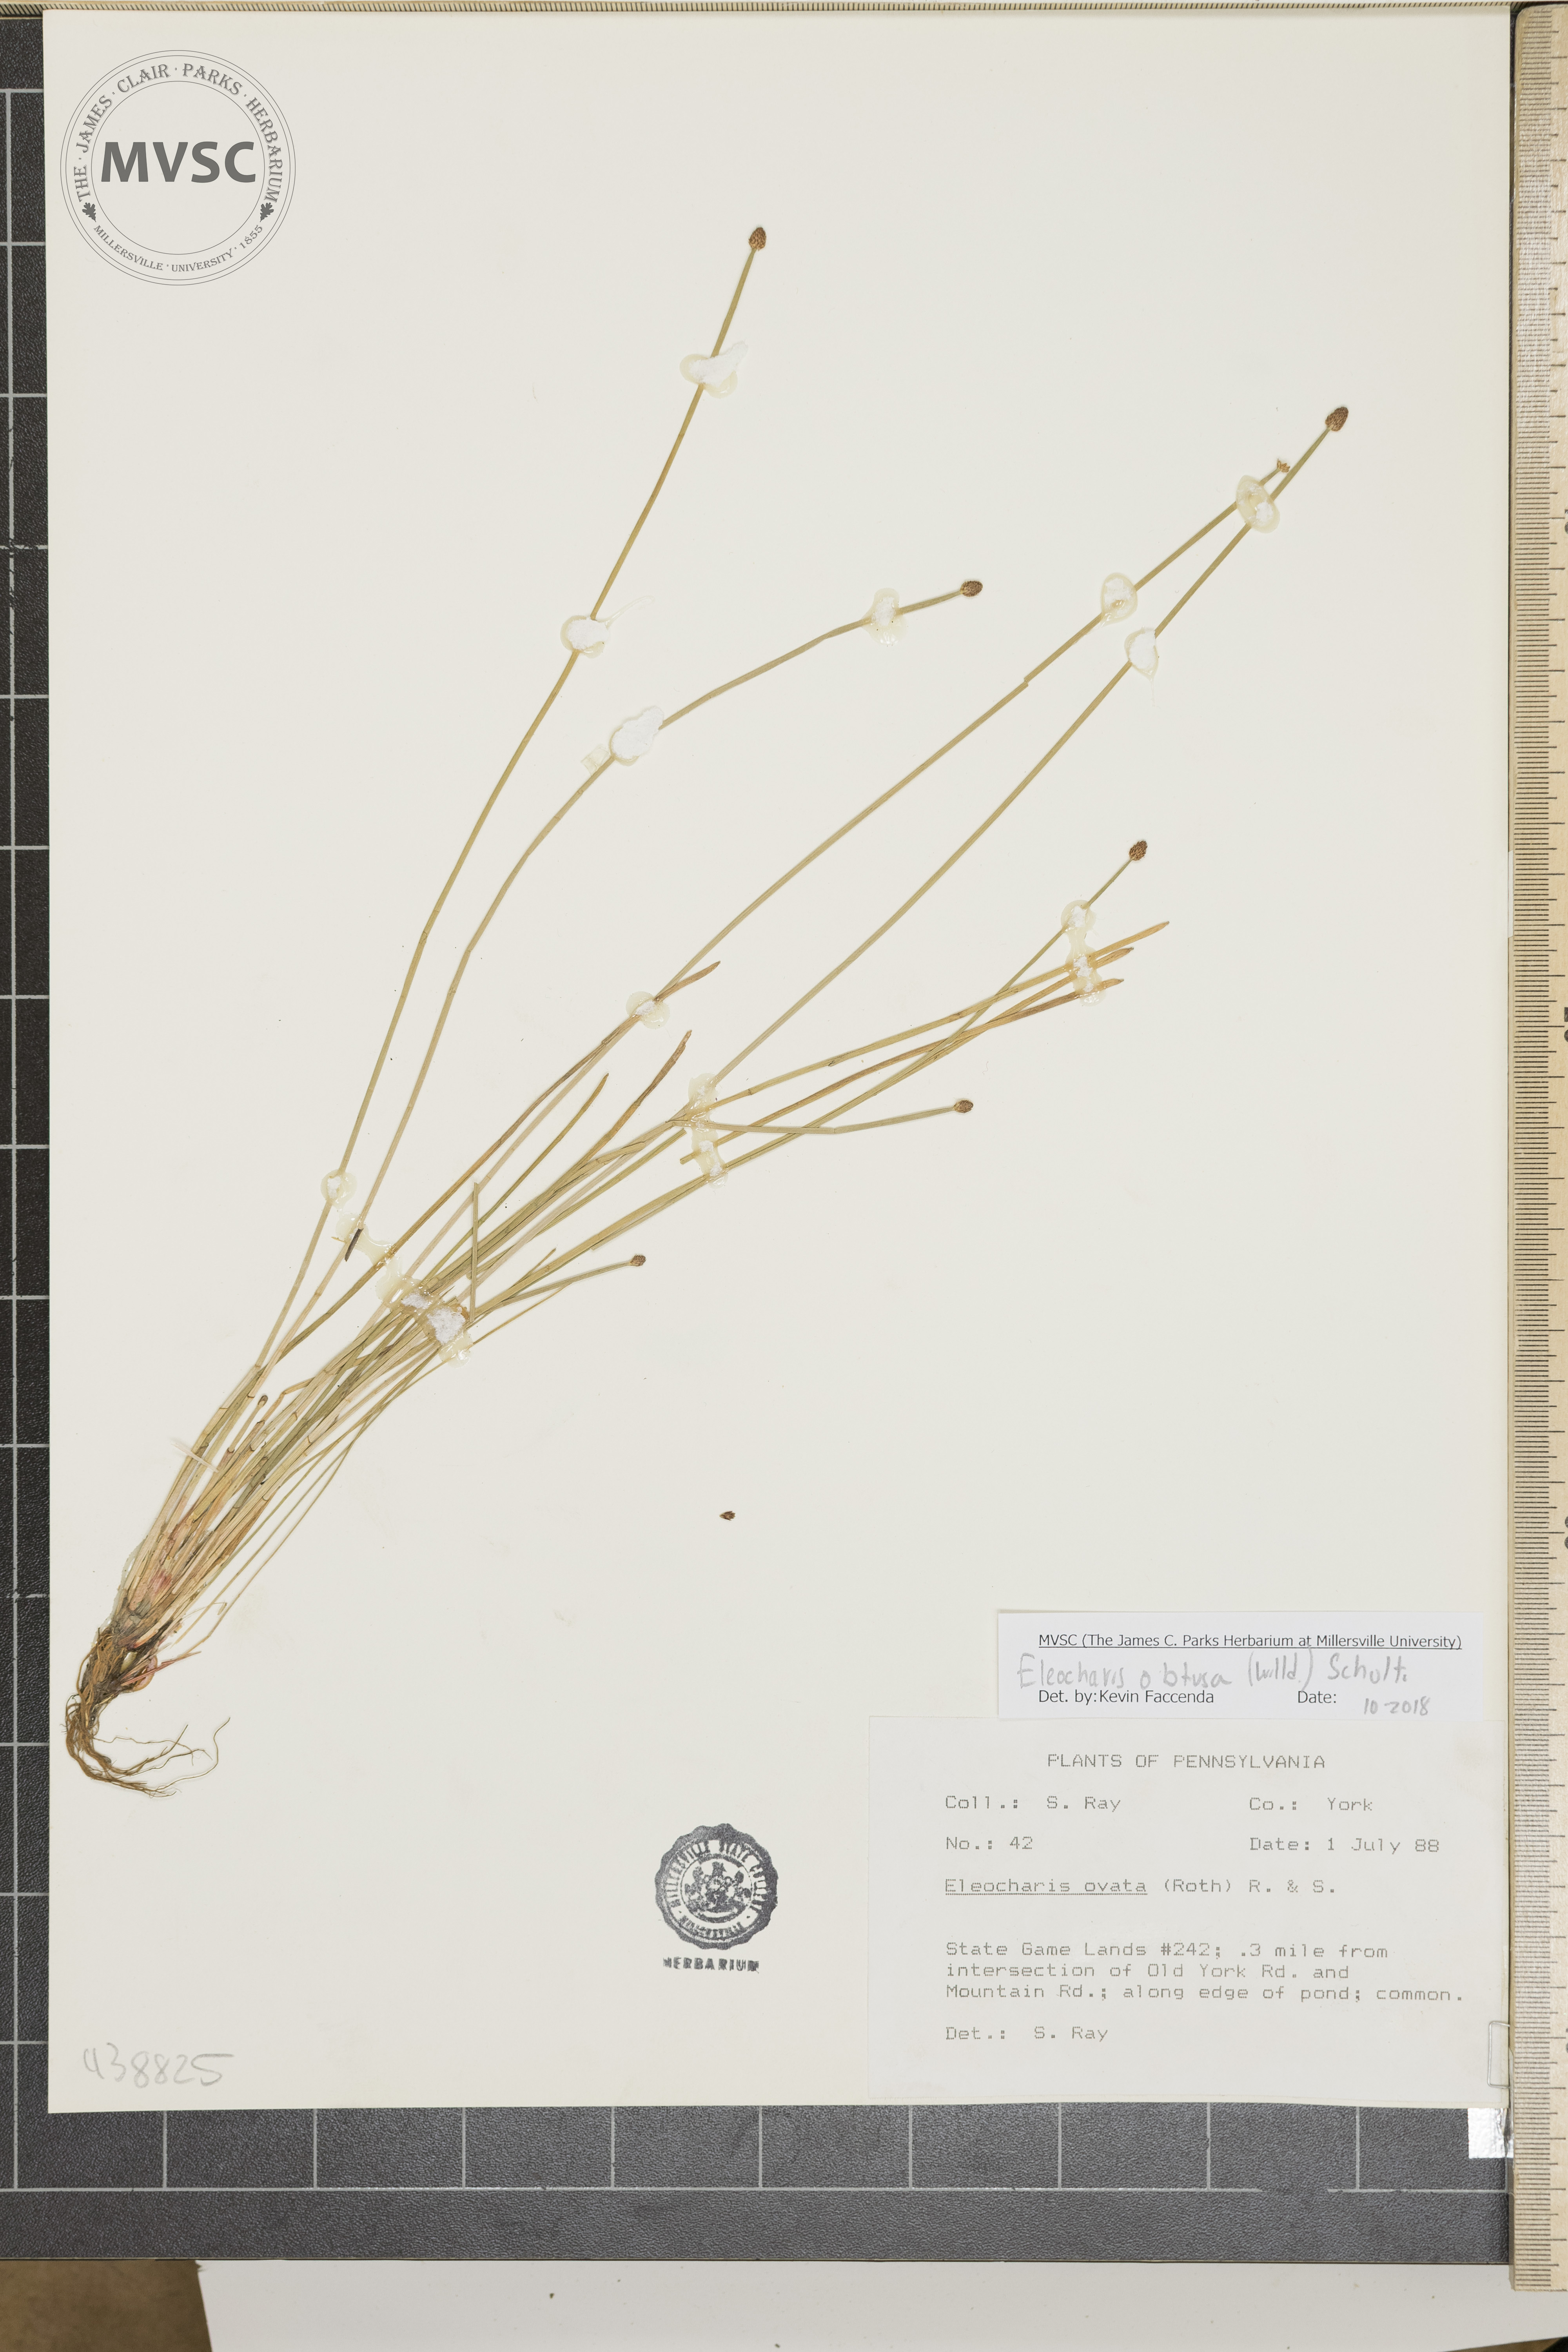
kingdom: Plantae
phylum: Tracheophyta
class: Liliopsida
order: Poales
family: Cyperaceae
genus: Eleocharis
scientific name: Eleocharis obtusa
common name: Blunt spikerush
